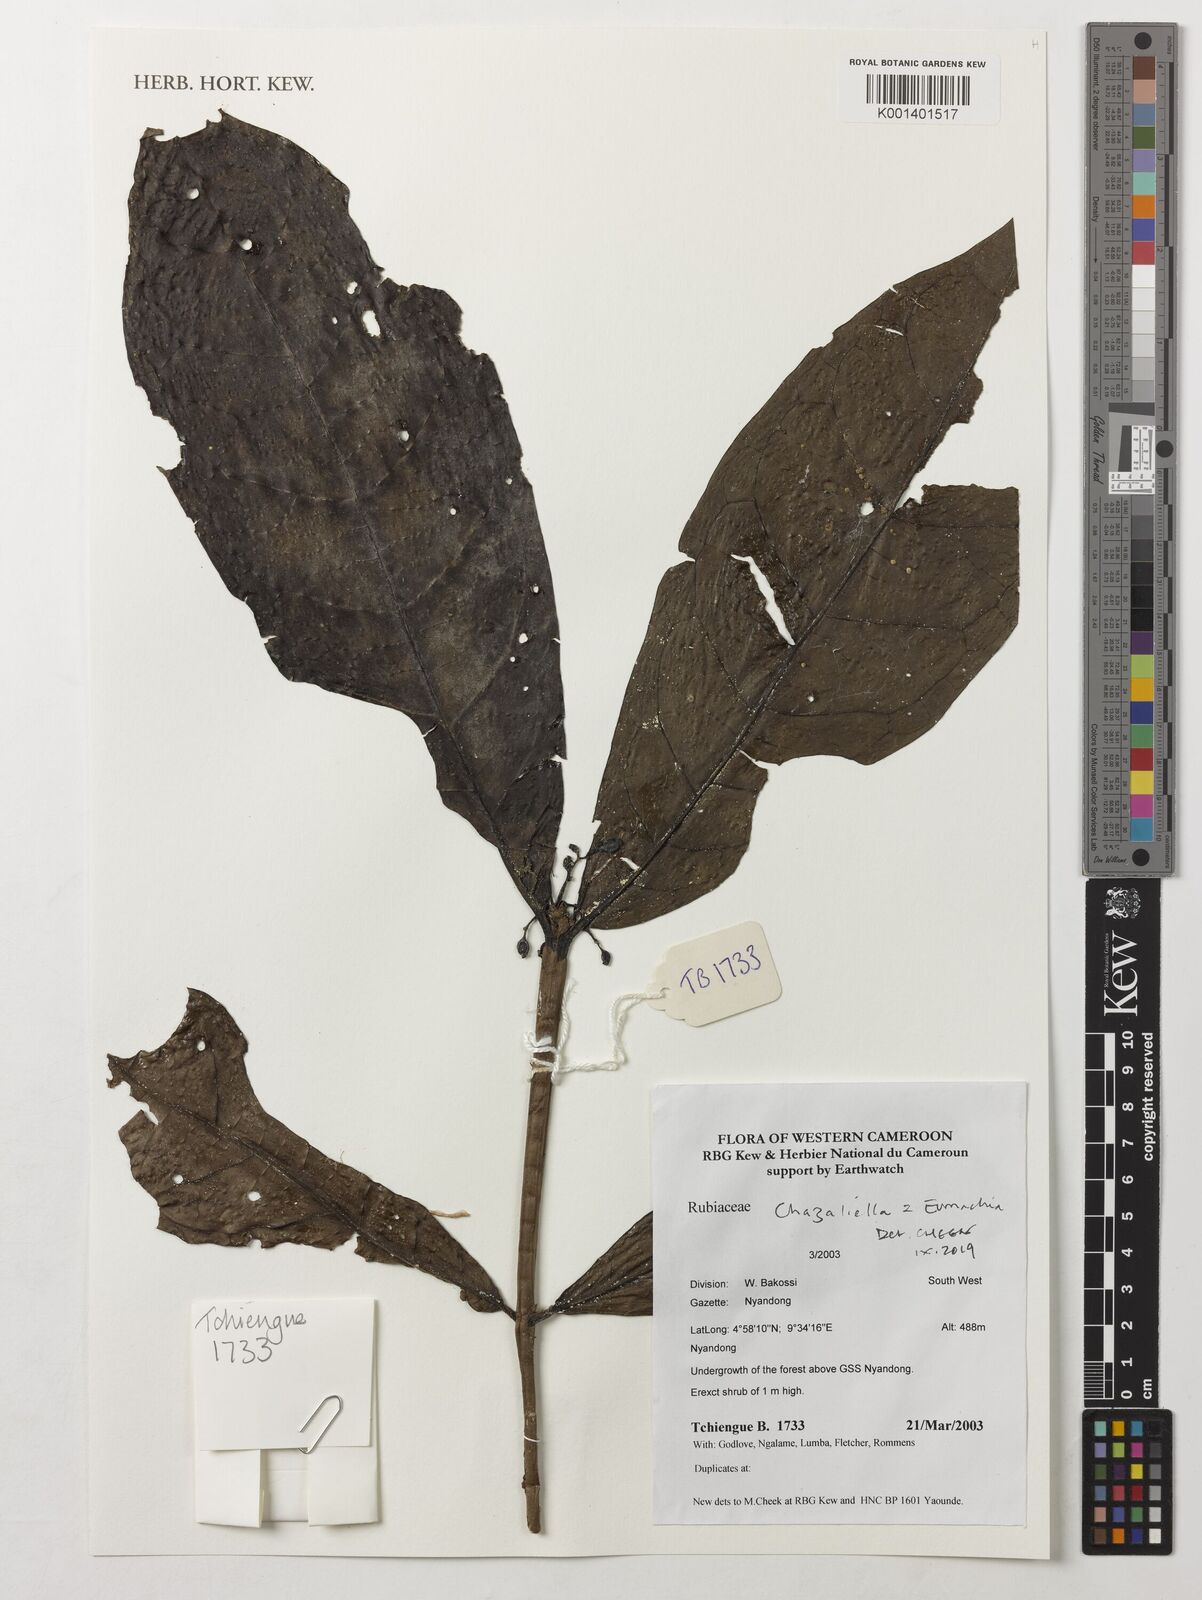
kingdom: Plantae
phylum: Tracheophyta
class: Magnoliopsida
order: Gentianales
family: Rubiaceae
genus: Eumachia
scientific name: Eumachia
